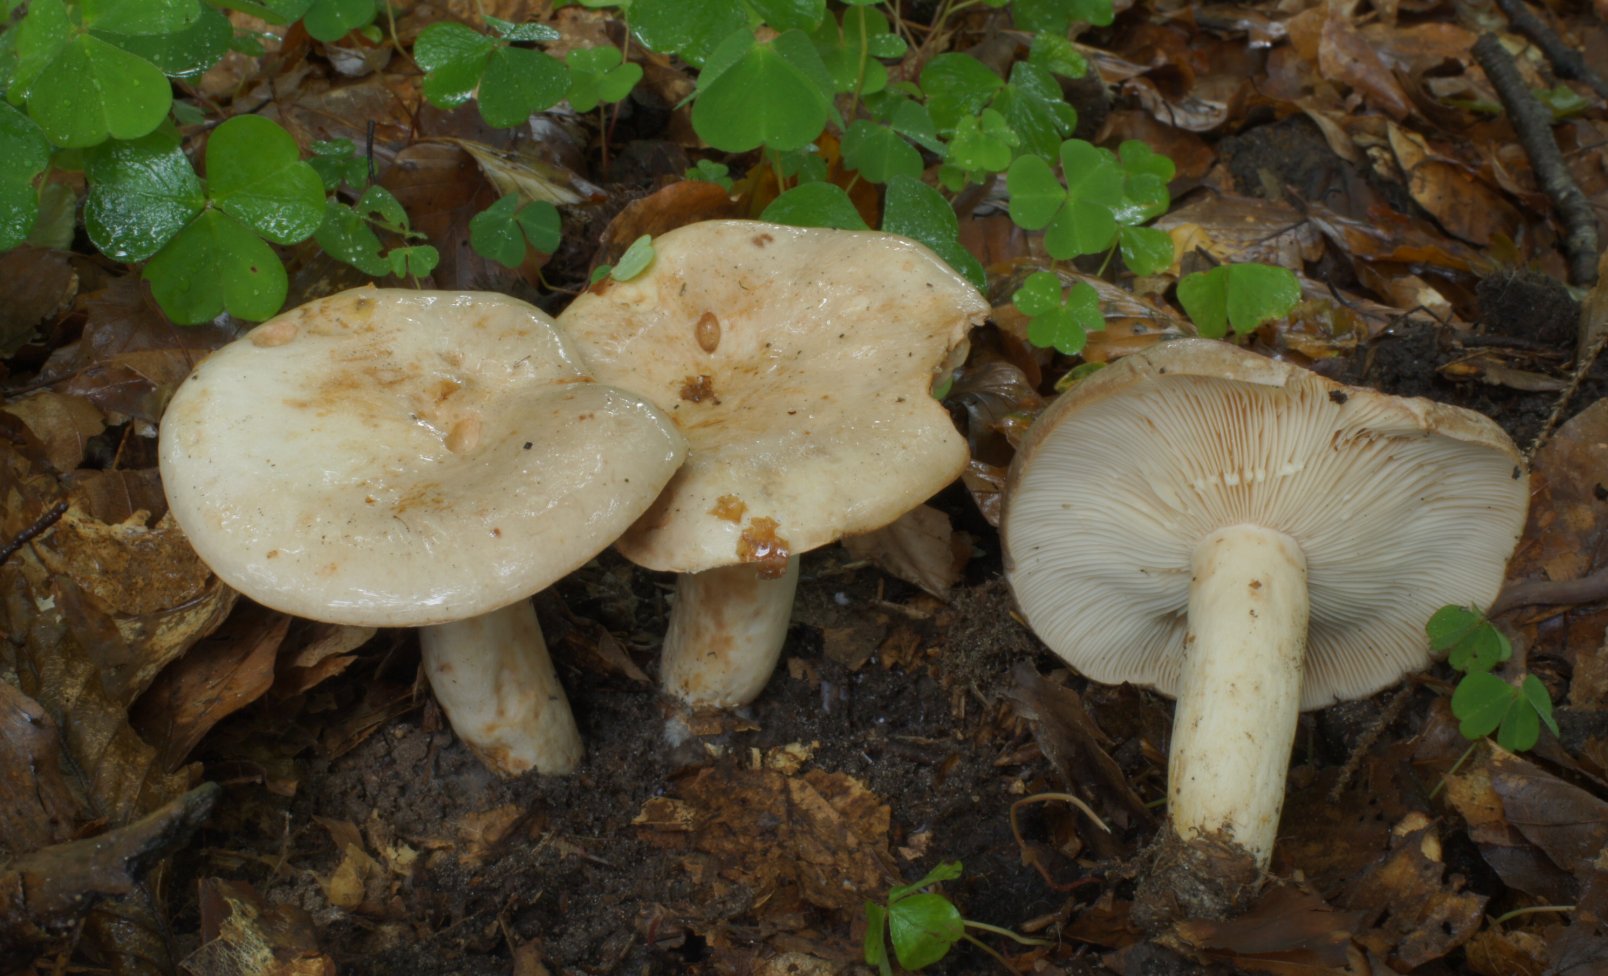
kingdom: Fungi
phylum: Basidiomycota
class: Agaricomycetes
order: Russulales
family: Russulaceae
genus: Lactarius
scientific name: Lactarius pallidus
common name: bleg mælkehat
